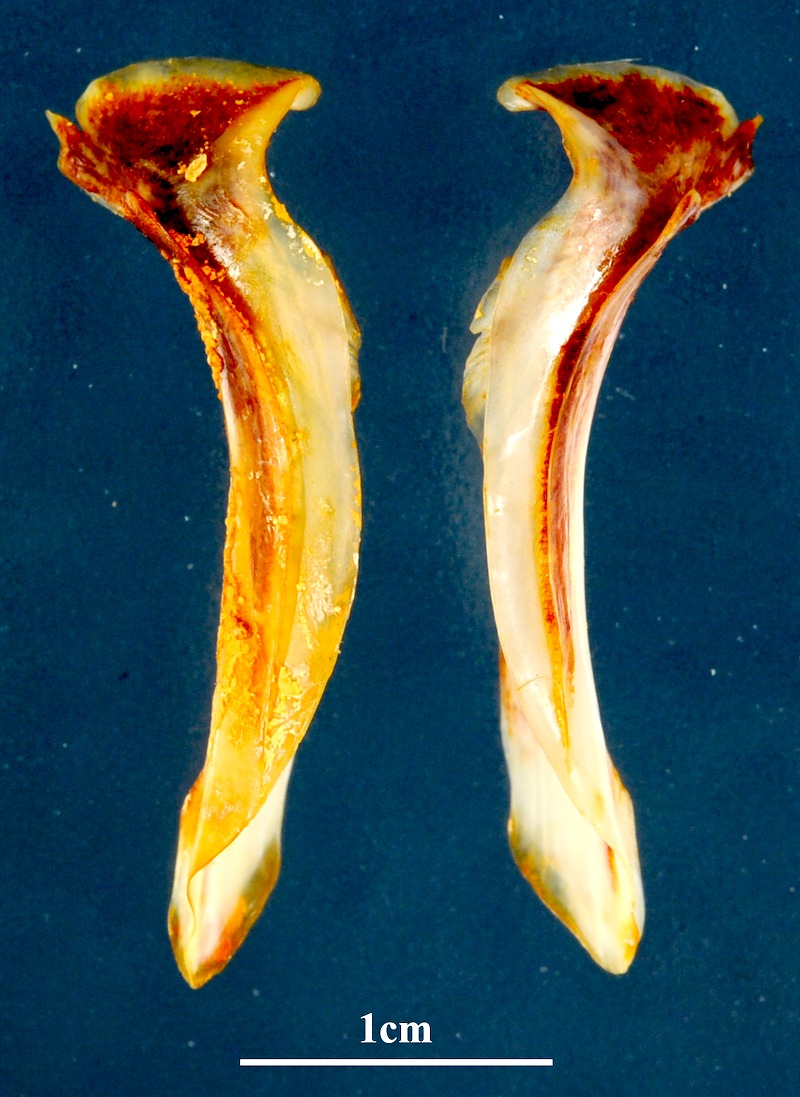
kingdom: Animalia
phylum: Chordata
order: Mugiliformes
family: Mugilidae
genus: Chelon
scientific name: Chelon saliens
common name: Leaping mullet
